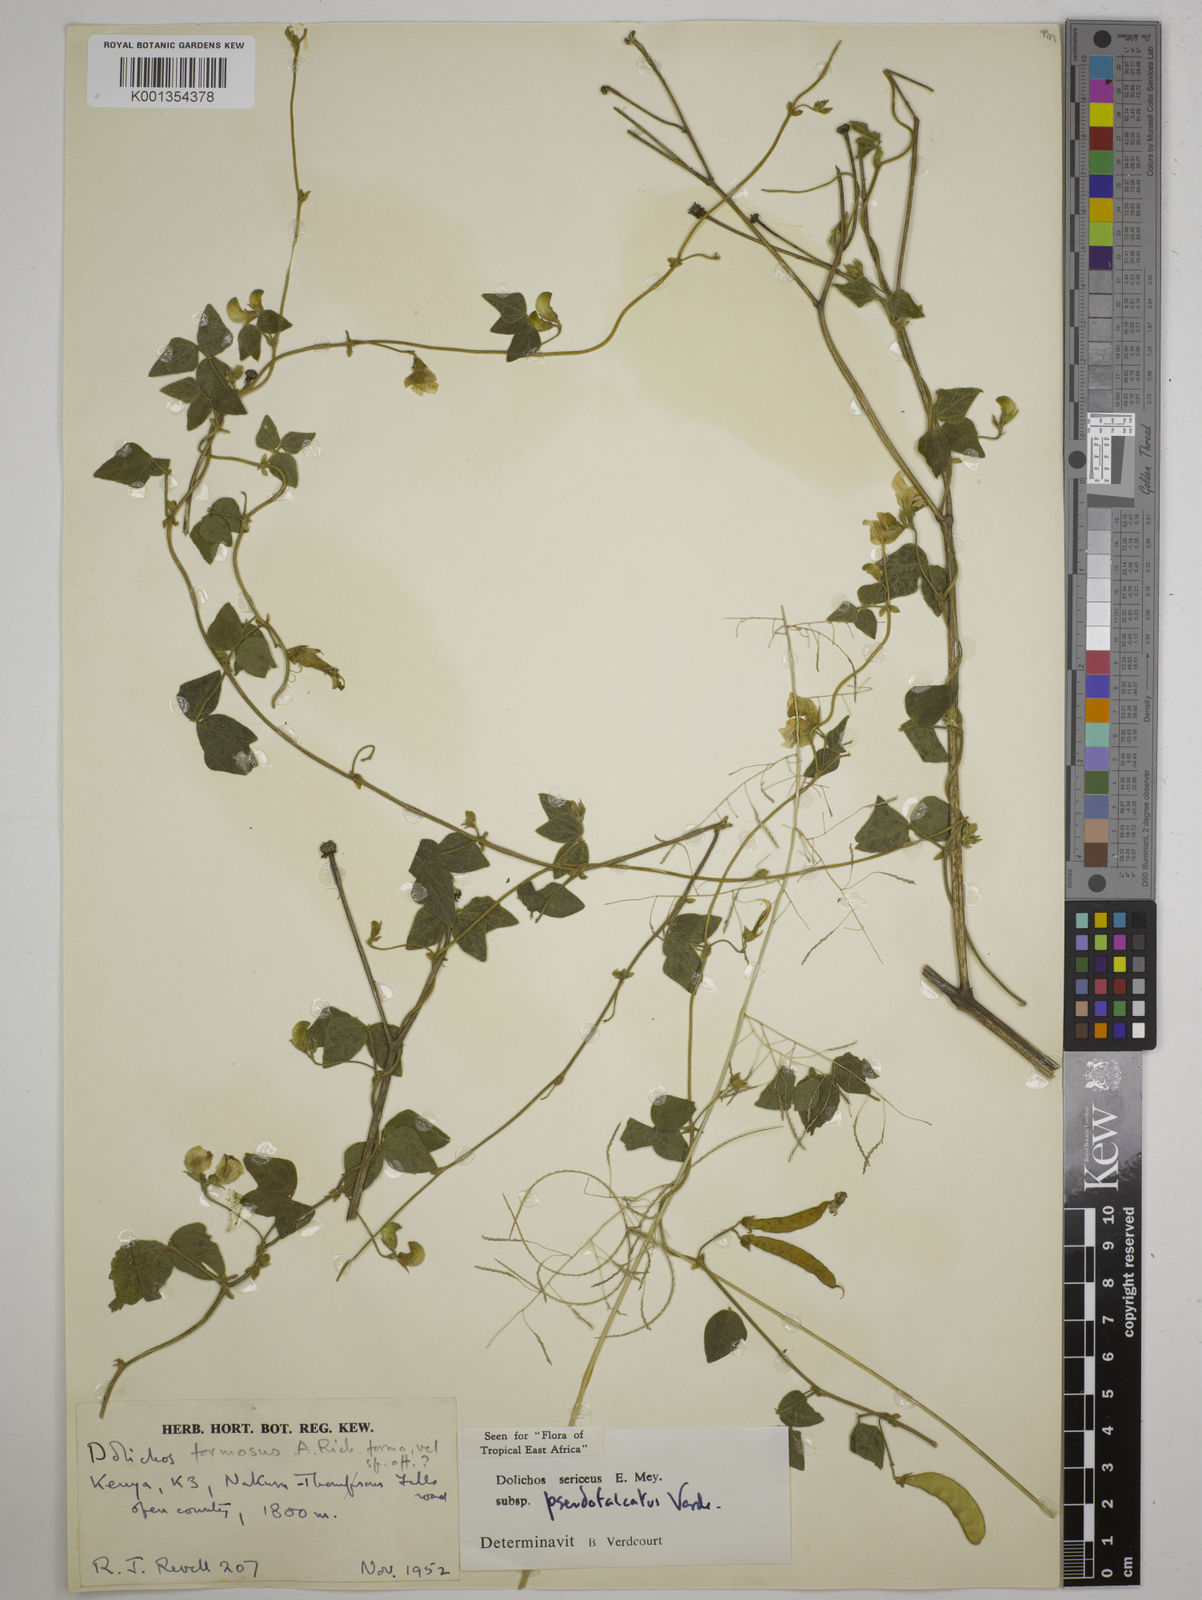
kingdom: Plantae
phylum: Tracheophyta
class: Magnoliopsida
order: Fabales
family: Fabaceae
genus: Dolichos
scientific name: Dolichos
